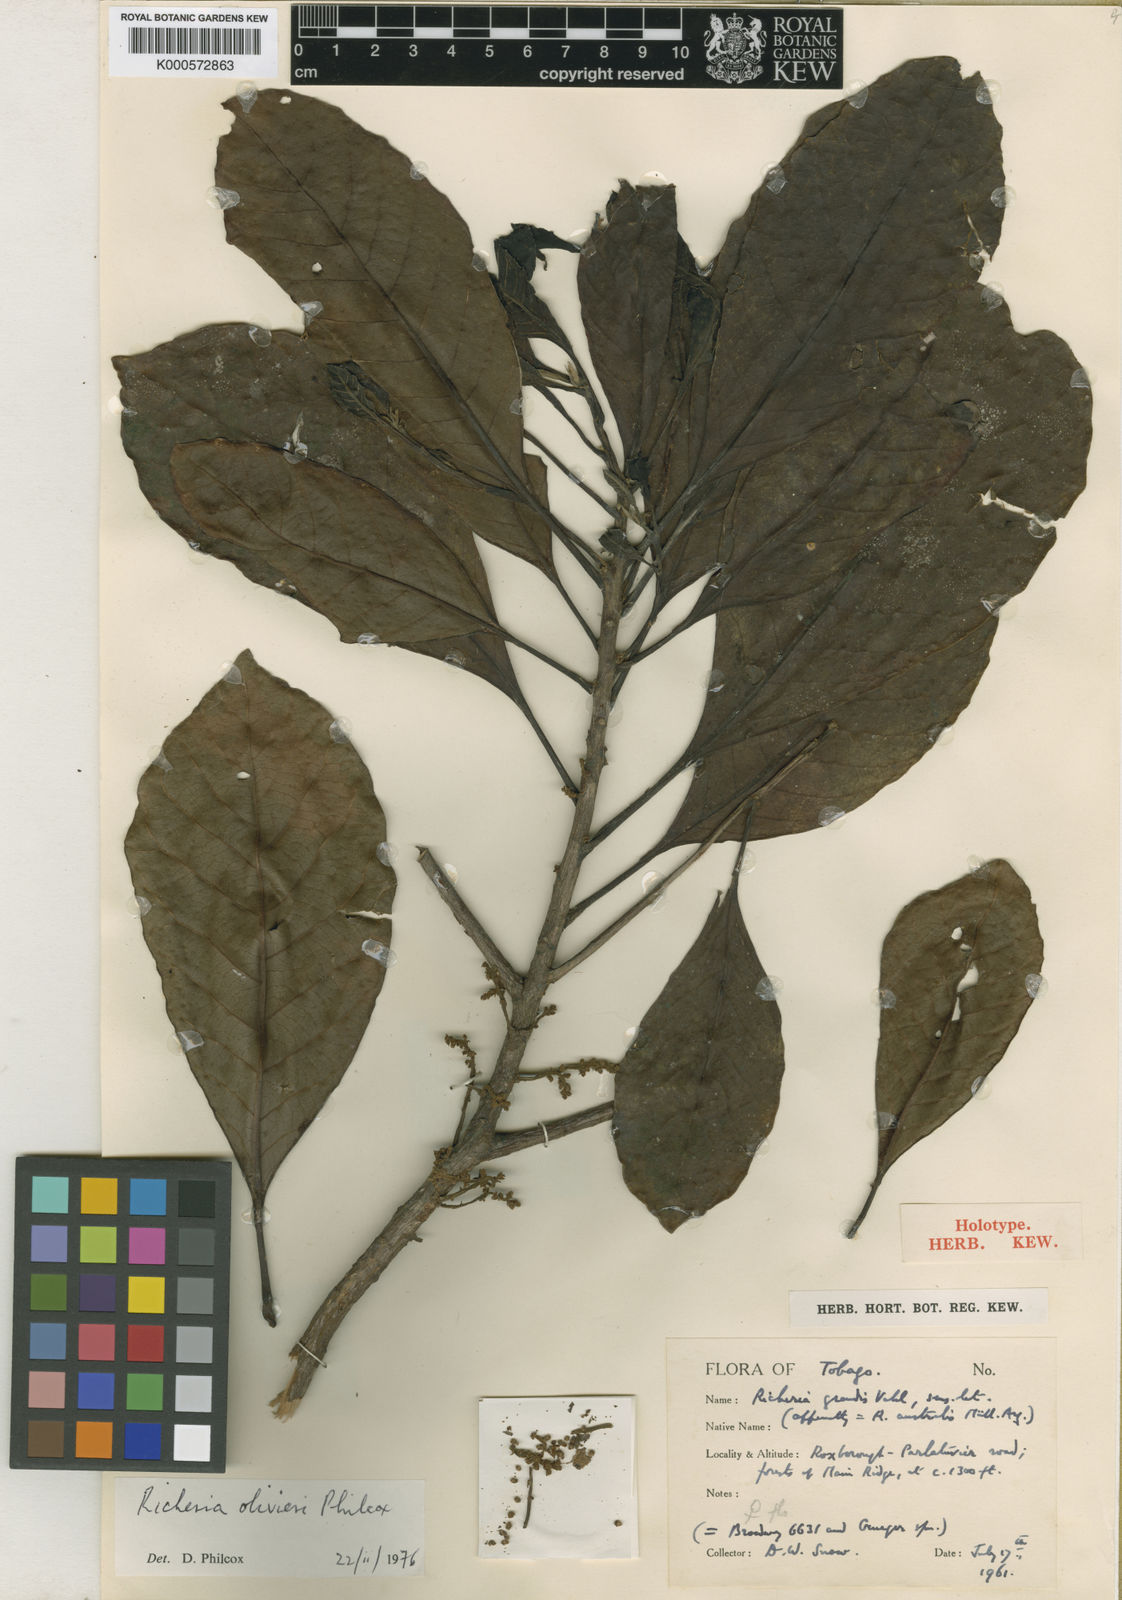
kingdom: Plantae
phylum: Tracheophyta
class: Magnoliopsida
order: Malpighiales
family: Phyllanthaceae
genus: Richeria
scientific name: Richeria grandis
